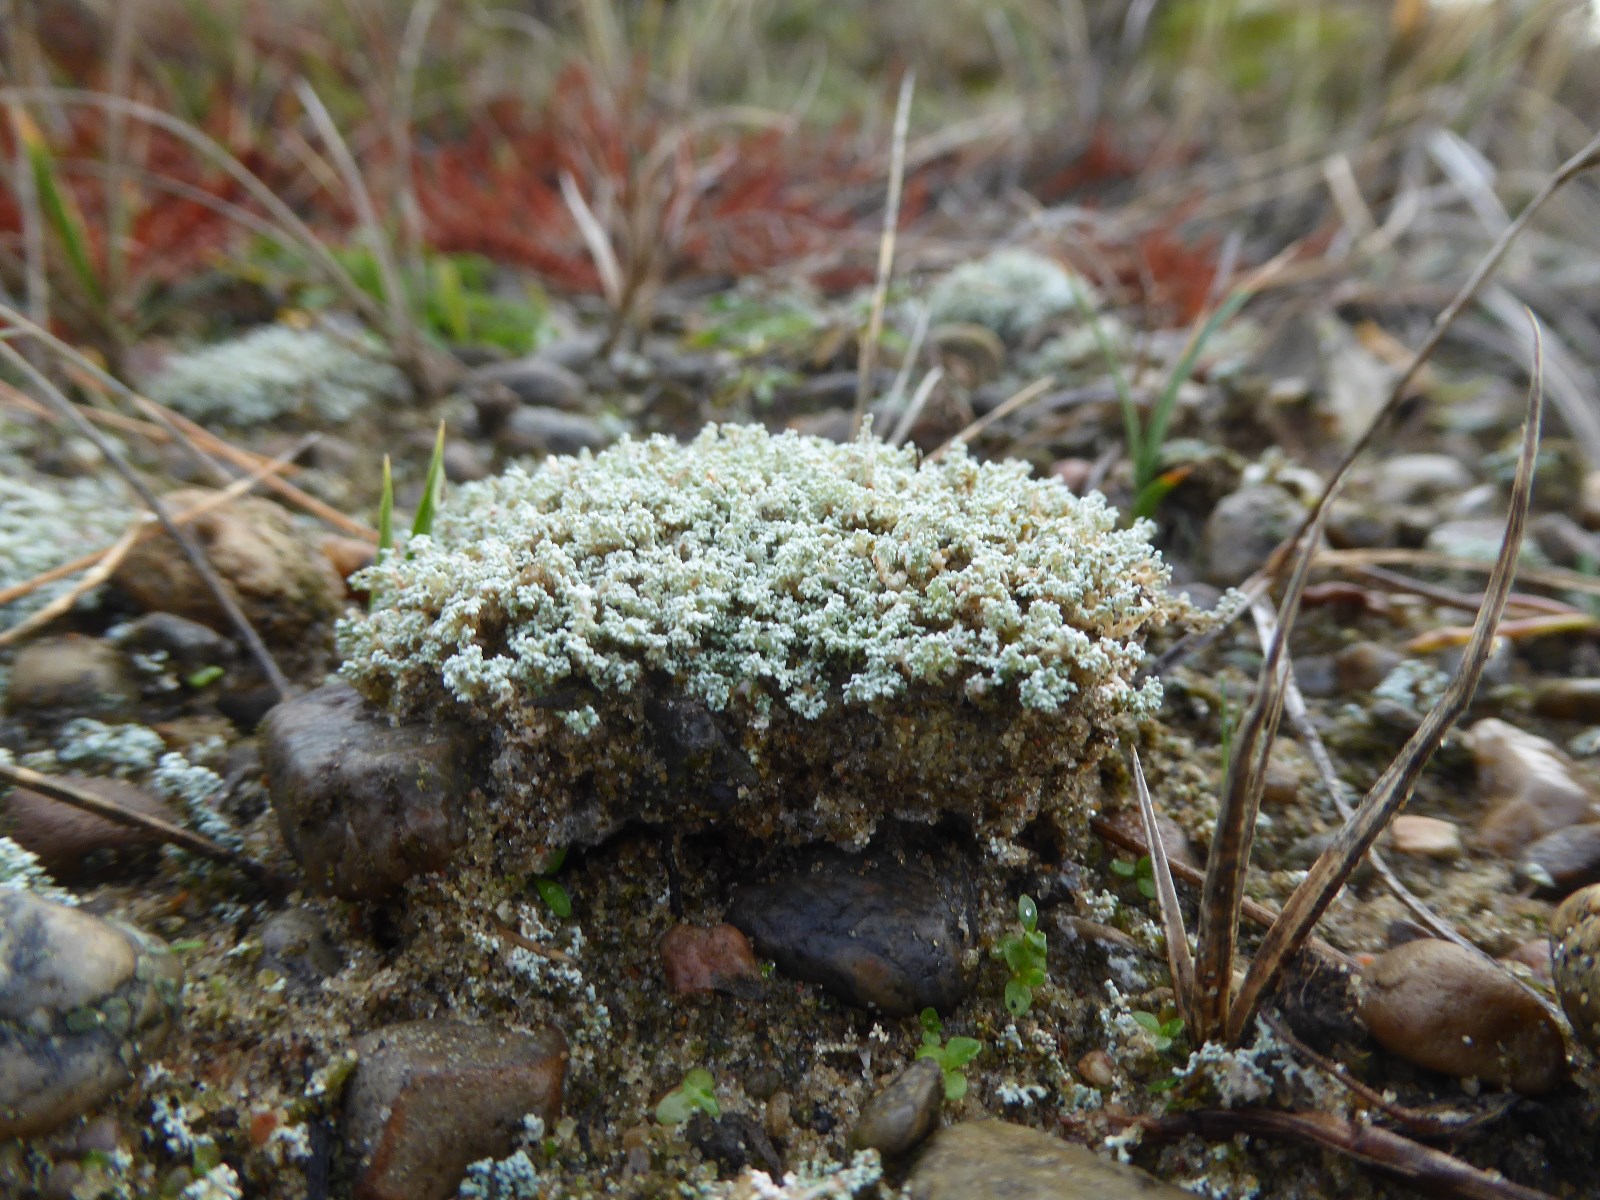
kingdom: Fungi
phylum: Ascomycota
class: Lecanoromycetes
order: Lecanorales
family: Stereocaulaceae
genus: Stereocaulon
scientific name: Stereocaulon condensatum
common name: lav korallav
